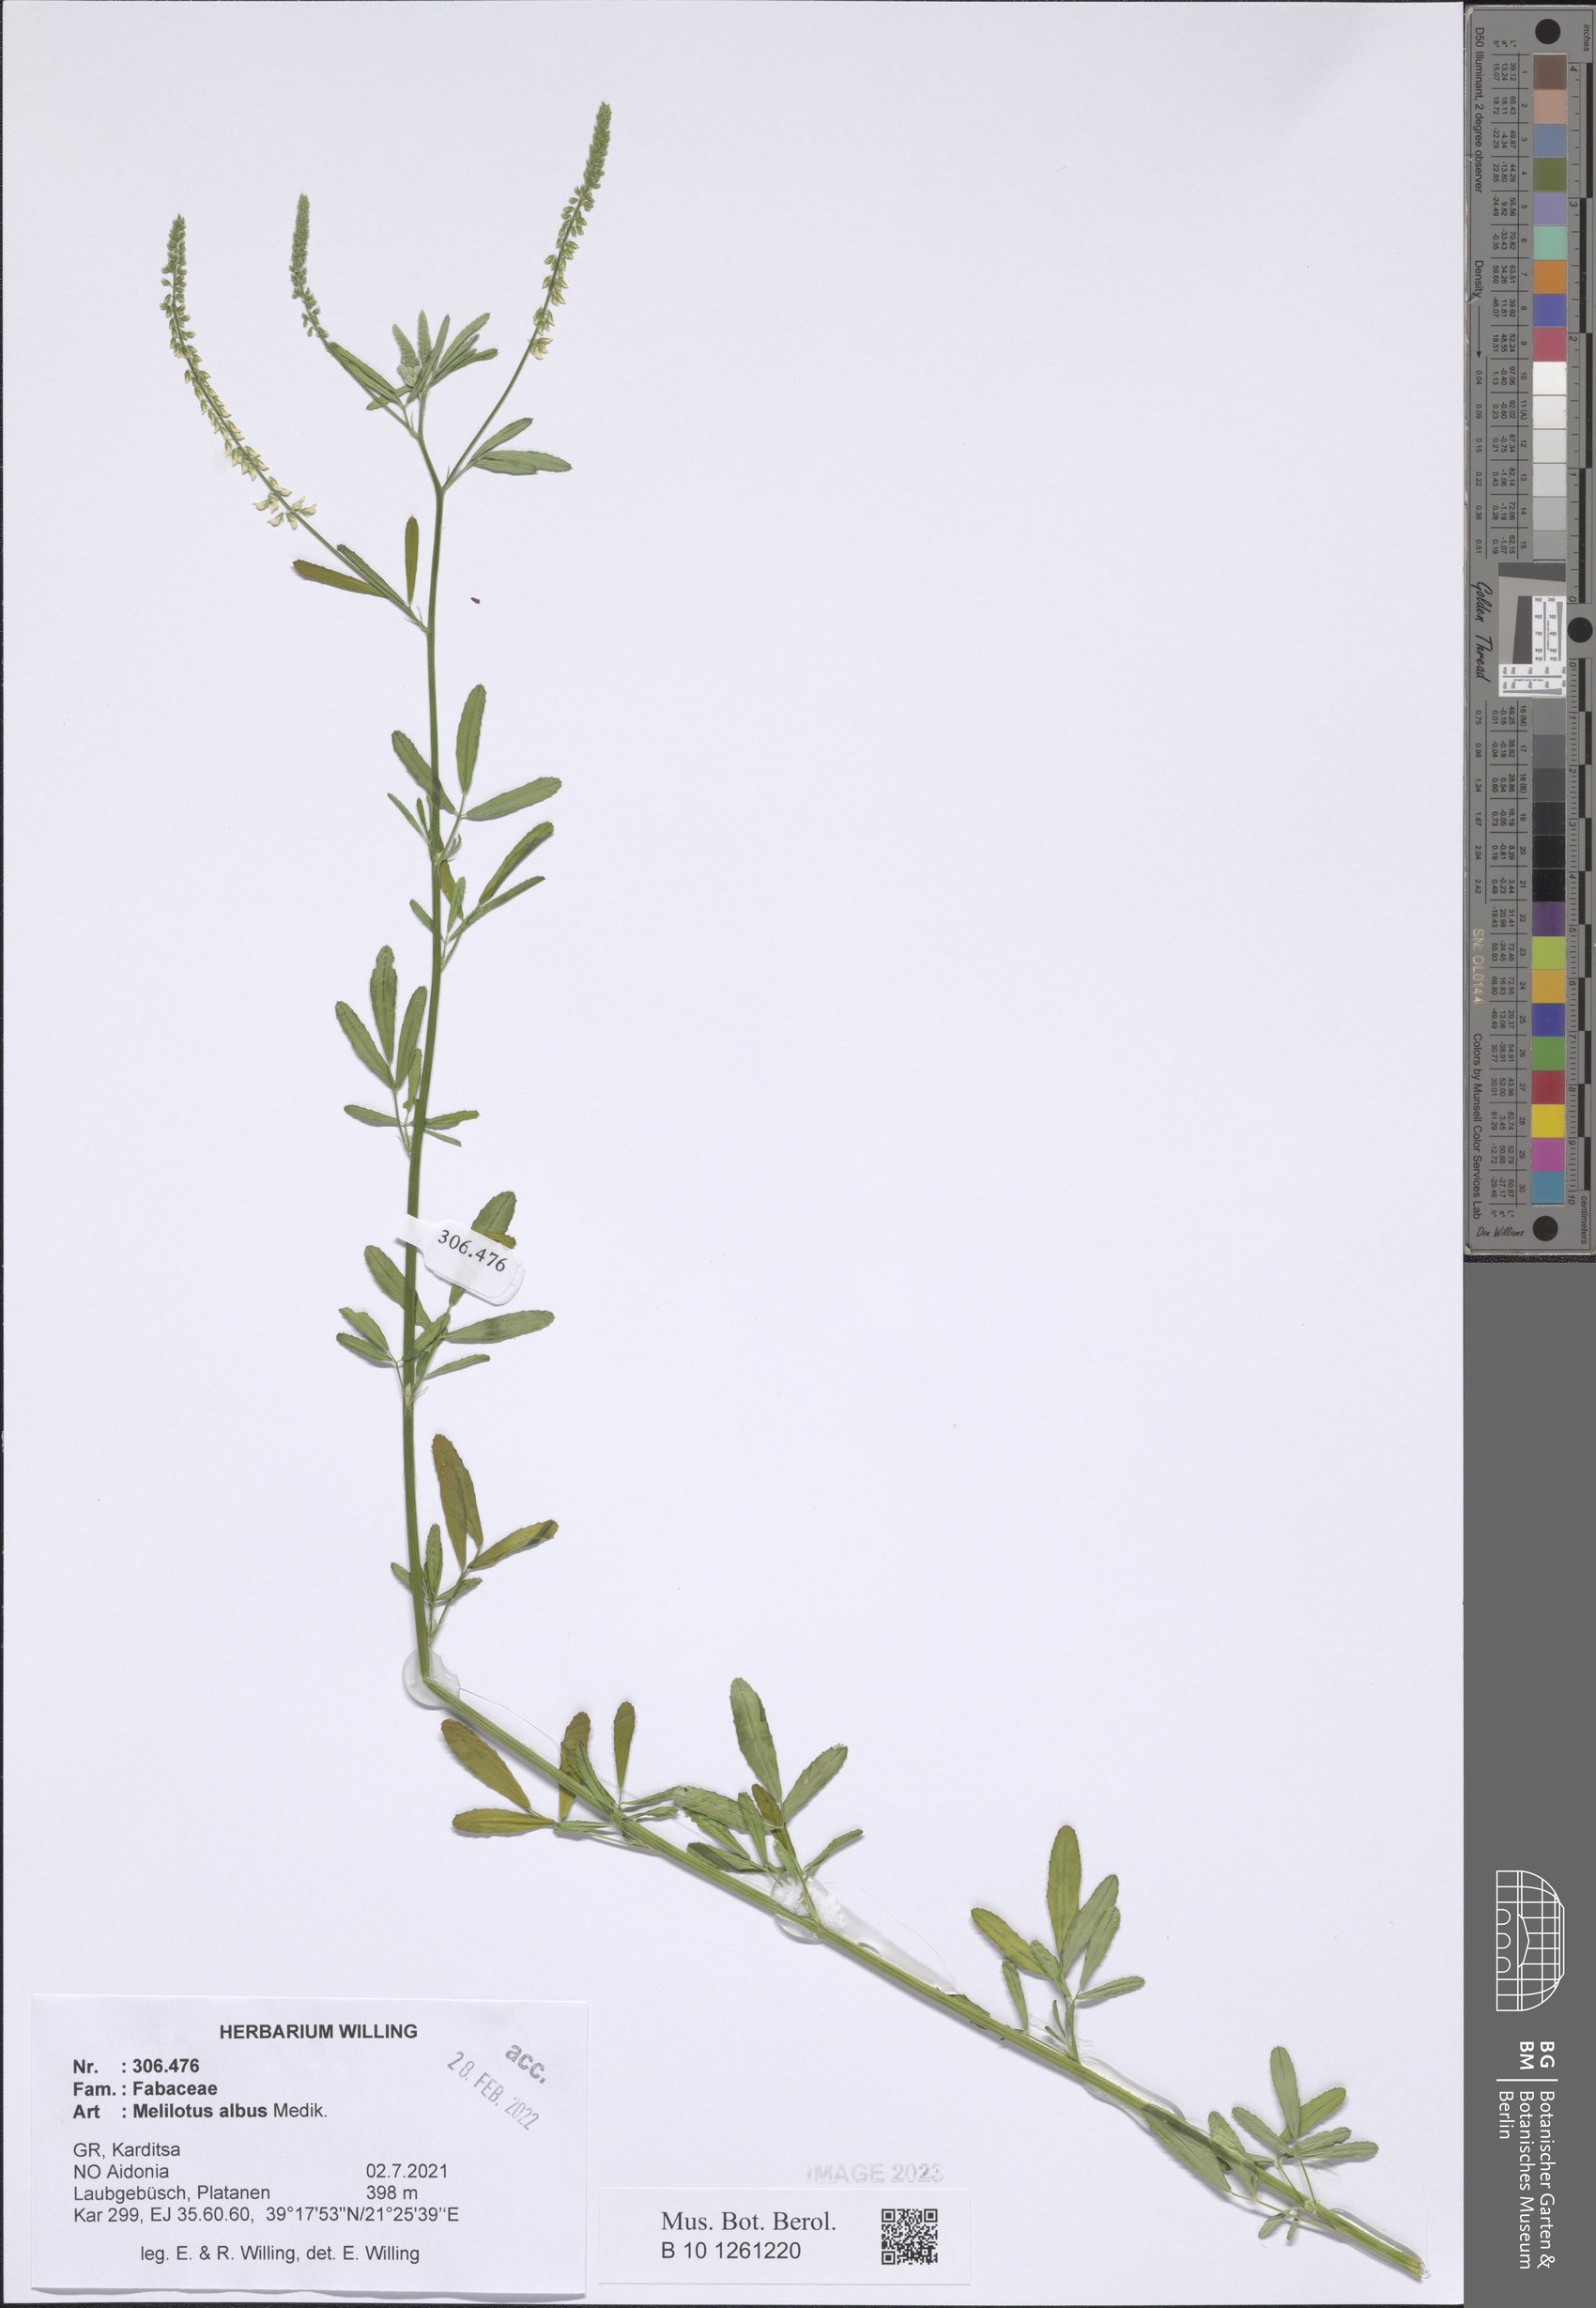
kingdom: Plantae
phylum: Tracheophyta
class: Magnoliopsida
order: Fabales
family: Fabaceae
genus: Melilotus
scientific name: Melilotus albus
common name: White melilot
